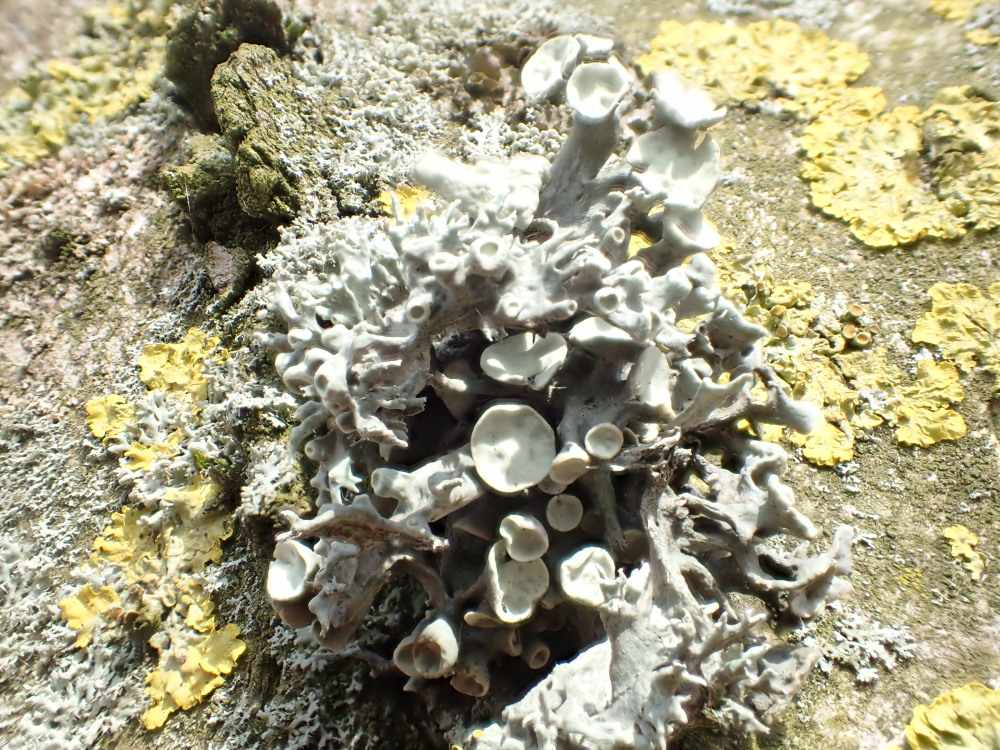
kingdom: Fungi
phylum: Ascomycota
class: Lecanoromycetes
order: Lecanorales
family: Ramalinaceae
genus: Ramalina
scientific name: Ramalina fastigiata
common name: tue-grenlav
